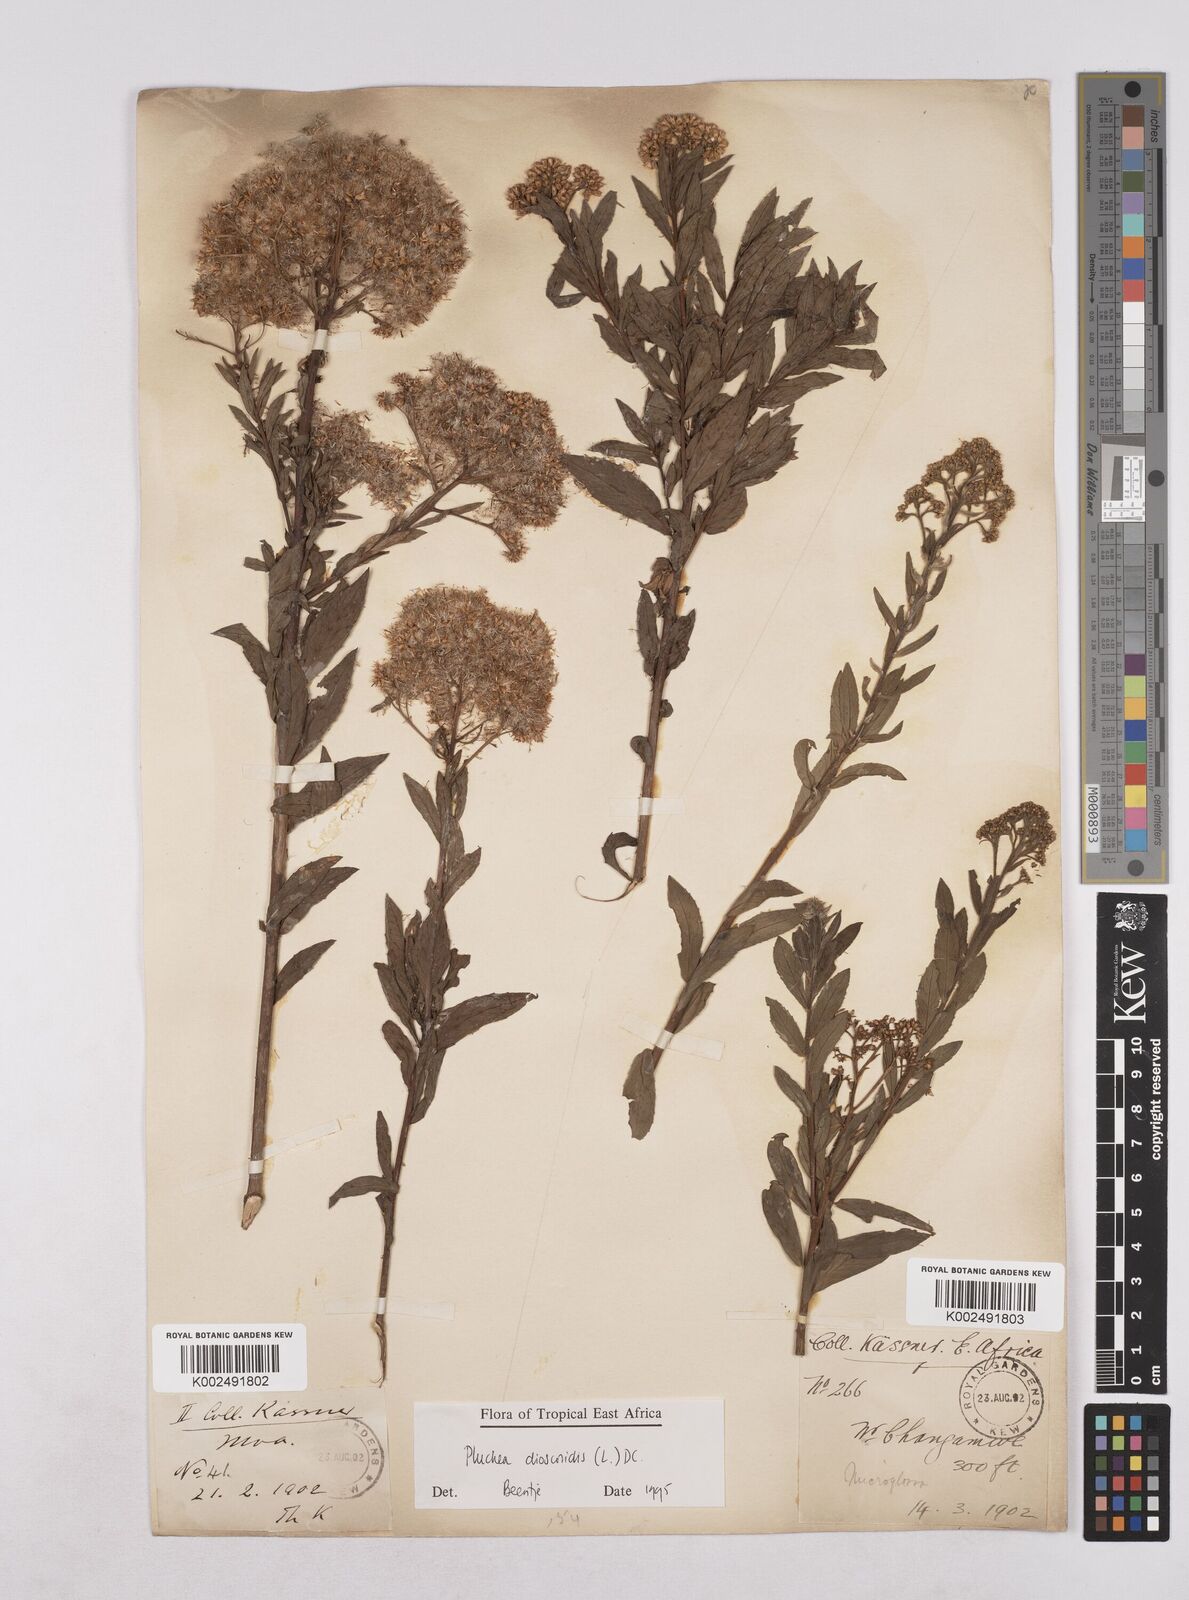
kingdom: Plantae
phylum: Tracheophyta
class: Magnoliopsida
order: Asterales
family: Asteraceae
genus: Pluchea
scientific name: Pluchea dioscoridis
